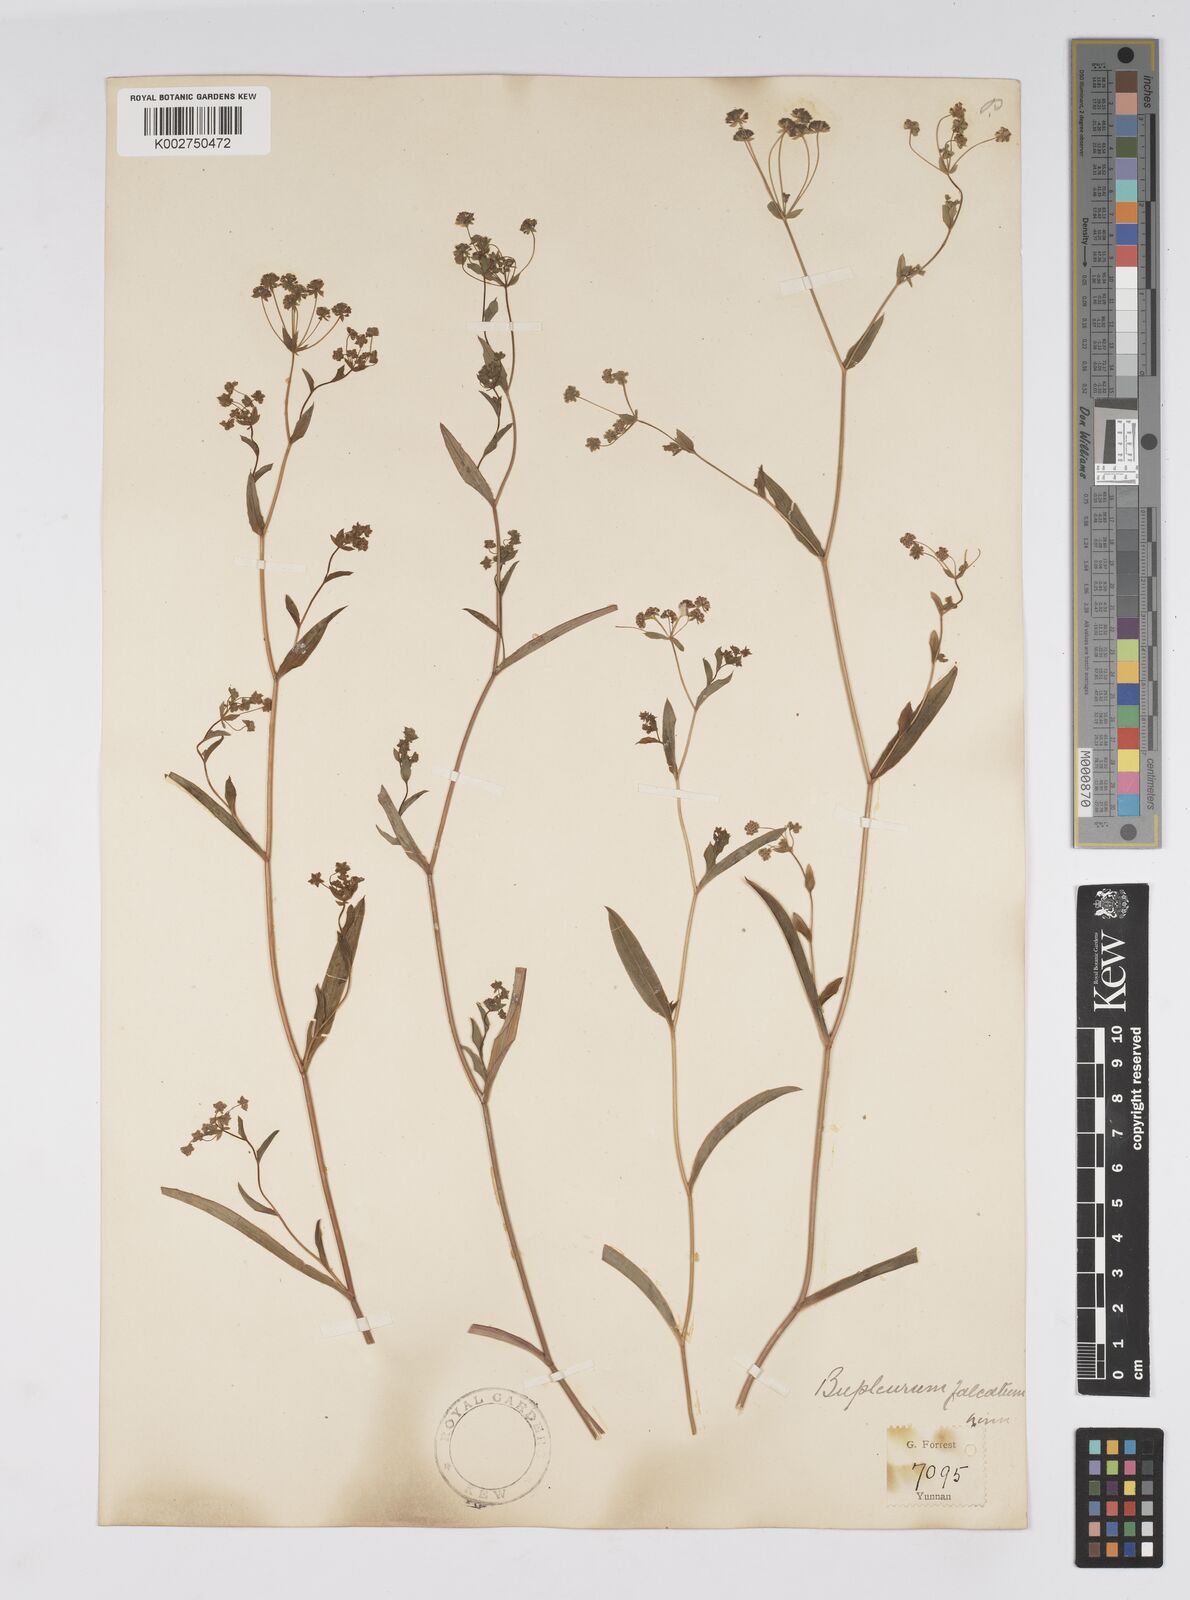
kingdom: Plantae
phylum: Tracheophyta
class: Magnoliopsida
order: Apiales
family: Apiaceae
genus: Bupleurum
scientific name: Bupleurum krylovianum
